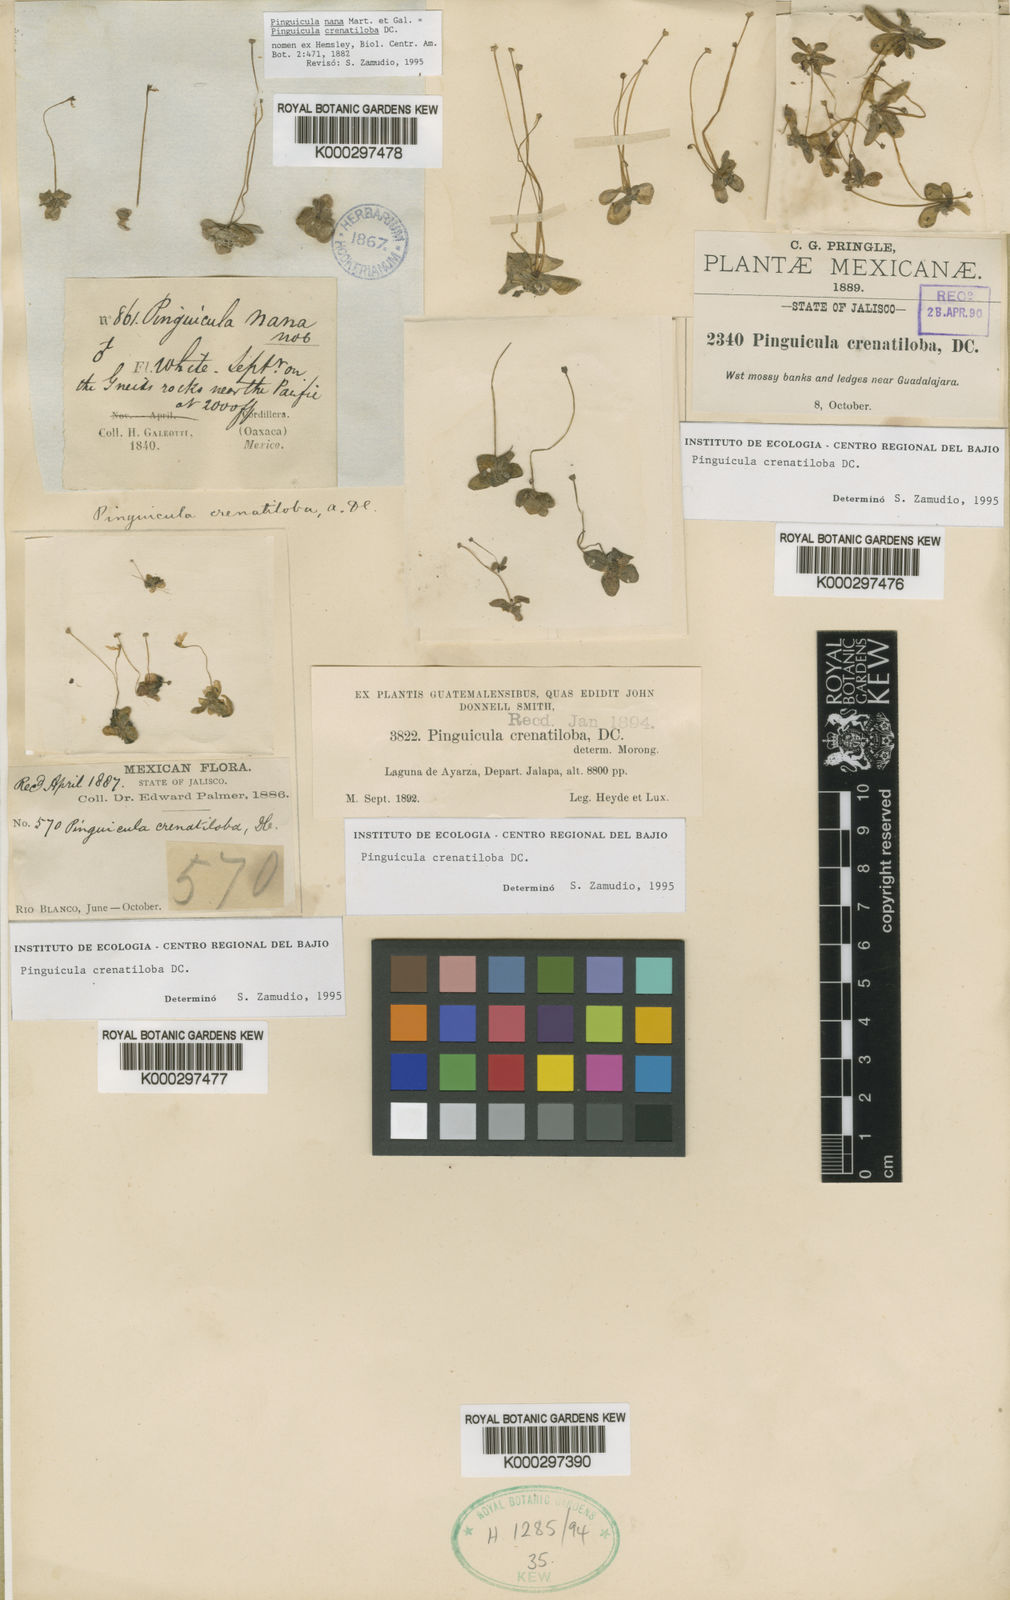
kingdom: Plantae
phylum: Tracheophyta
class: Magnoliopsida
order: Lamiales
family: Lentibulariaceae
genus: Pinguicula
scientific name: Pinguicula crenatiloba
